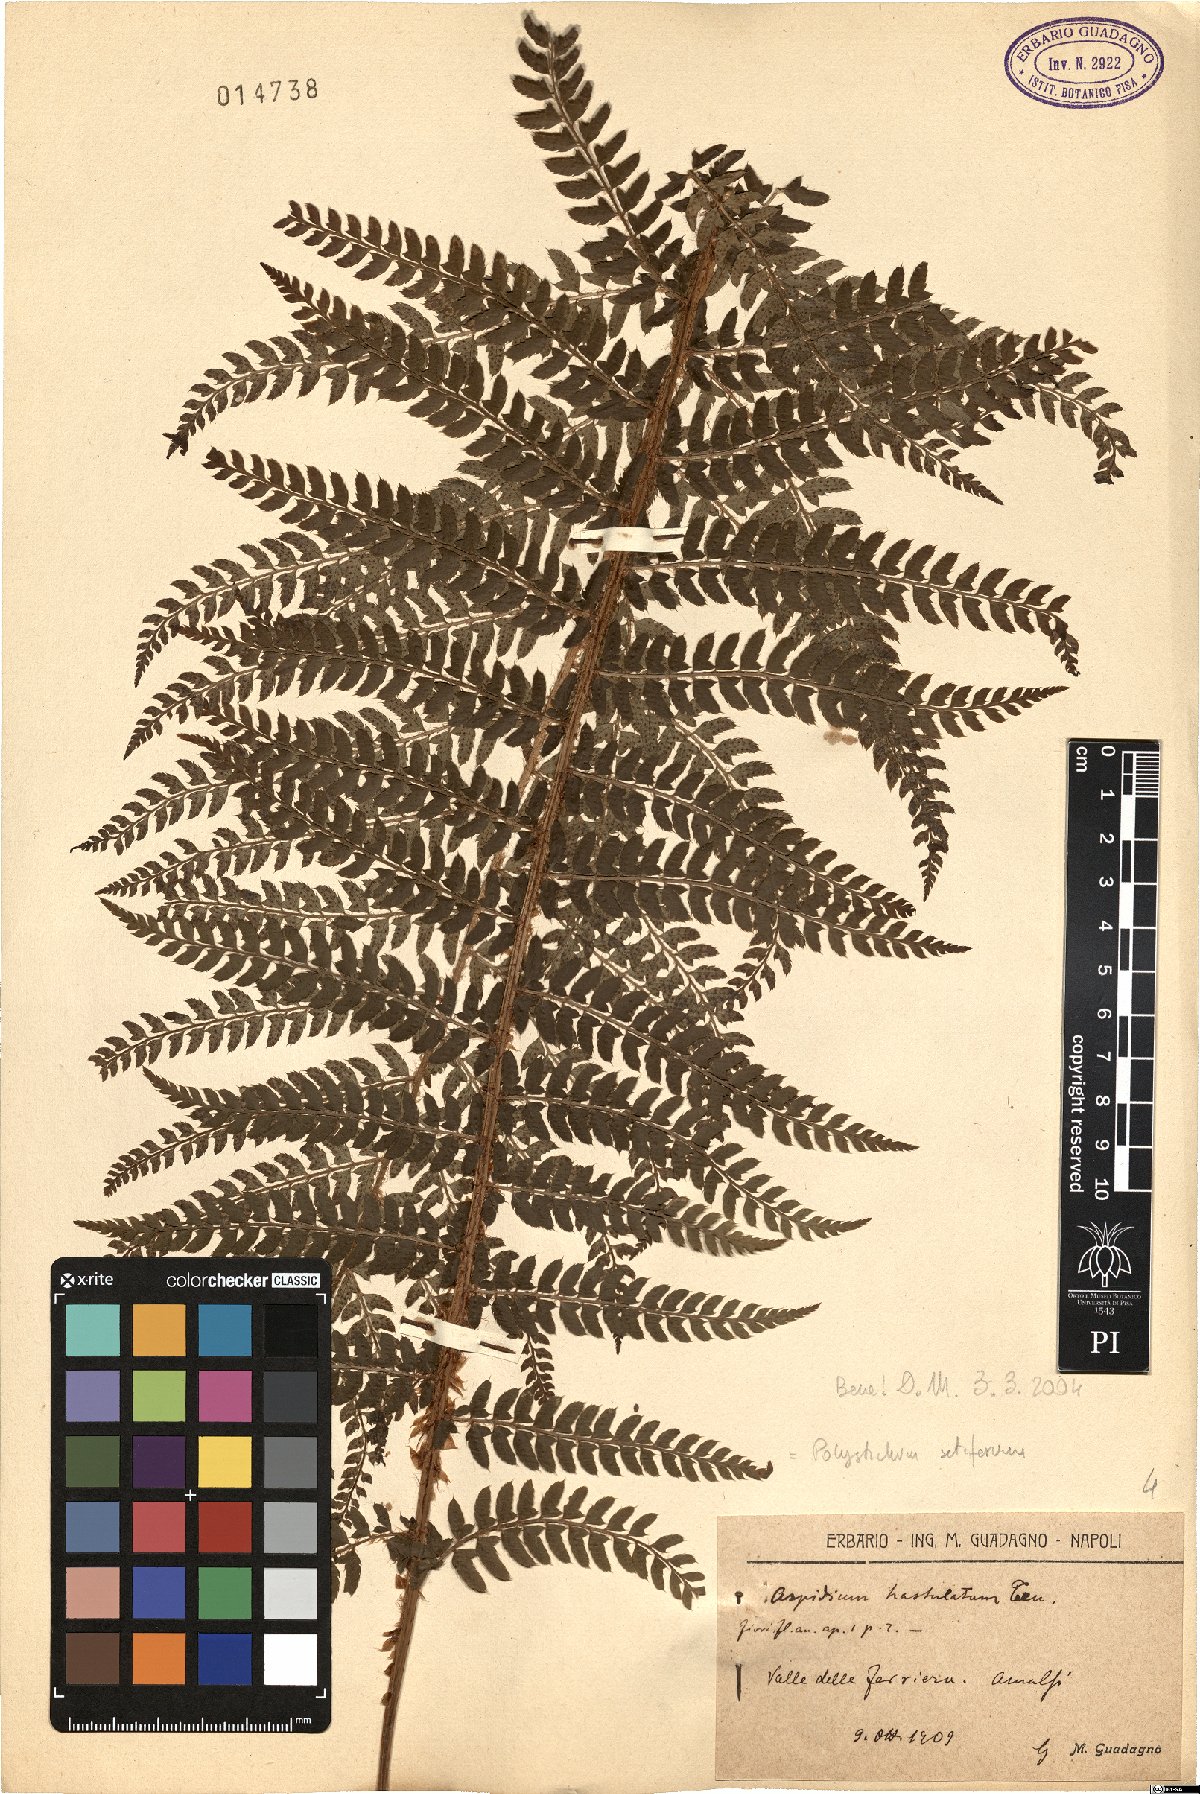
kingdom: Plantae
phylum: Tracheophyta
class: Polypodiopsida
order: Polypodiales
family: Dryopteridaceae
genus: Polystichum
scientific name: Polystichum setiferum
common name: Soft shield-fern
